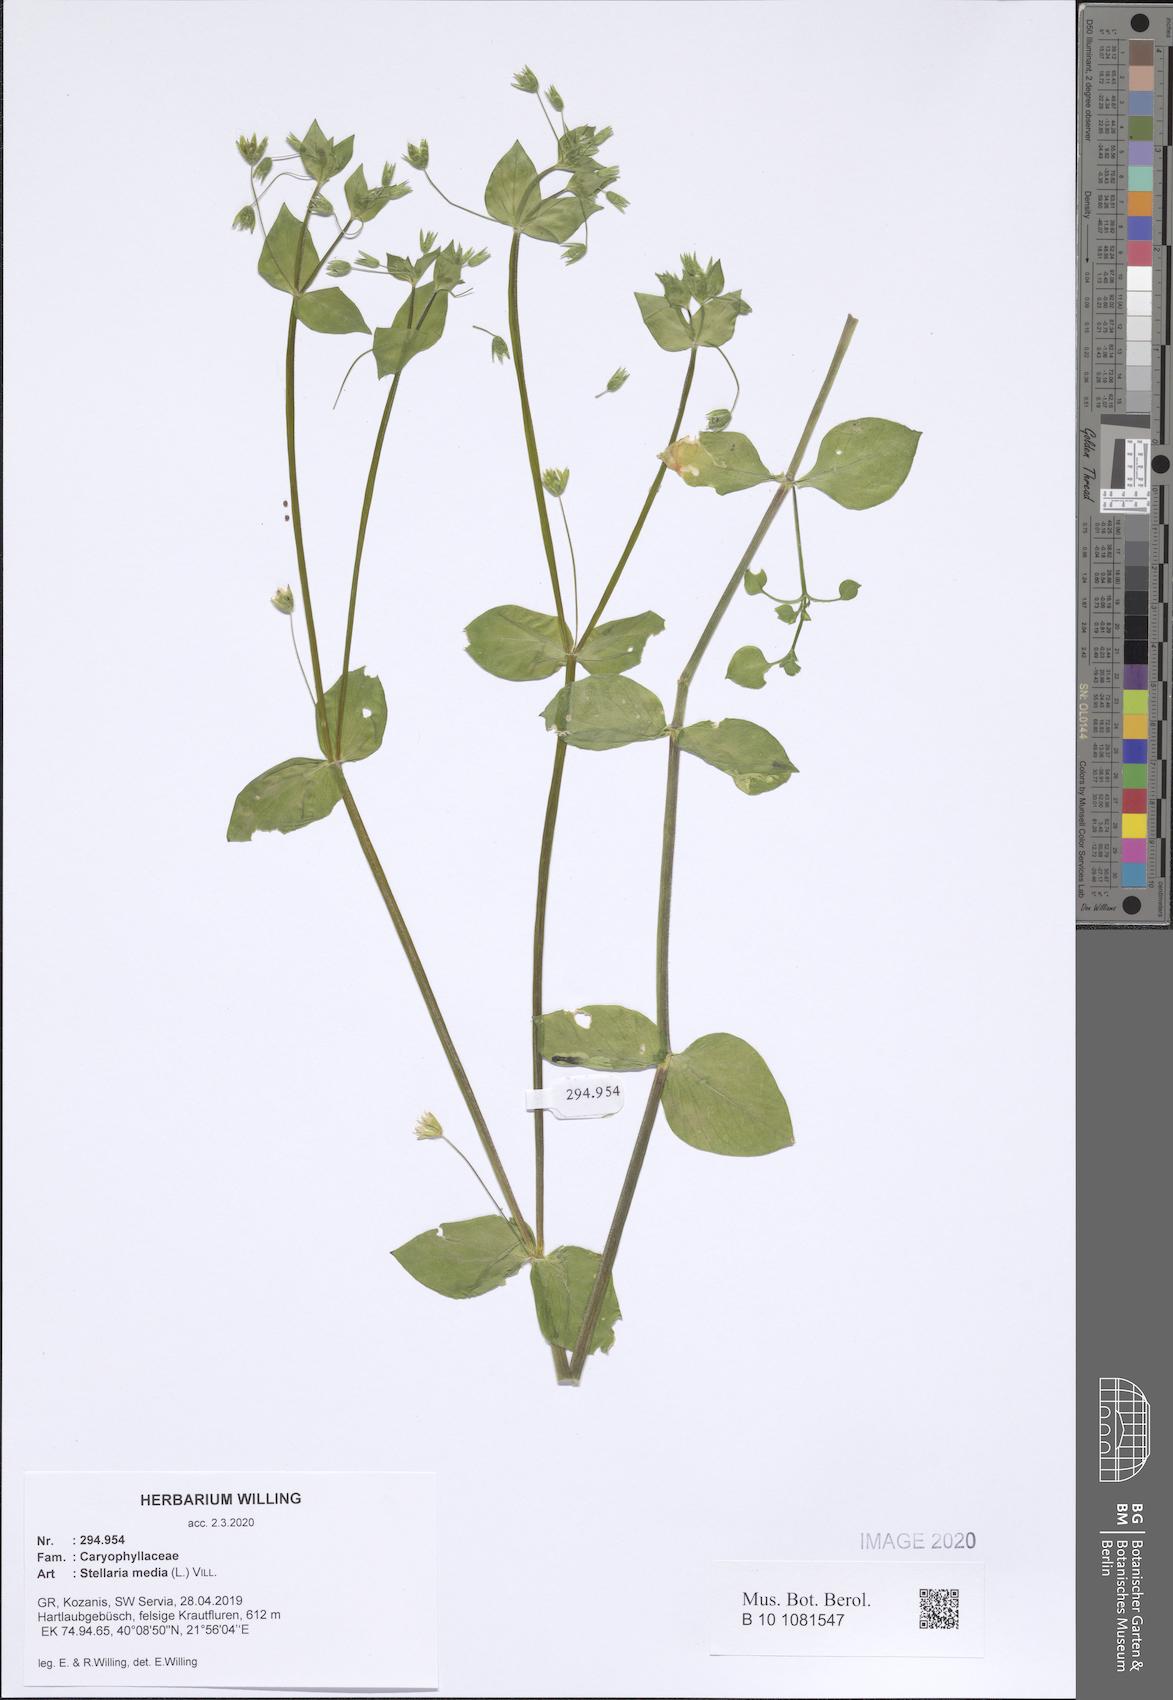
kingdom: Plantae
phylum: Tracheophyta
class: Magnoliopsida
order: Caryophyllales
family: Caryophyllaceae
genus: Stellaria
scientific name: Stellaria media
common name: Common chickweed
